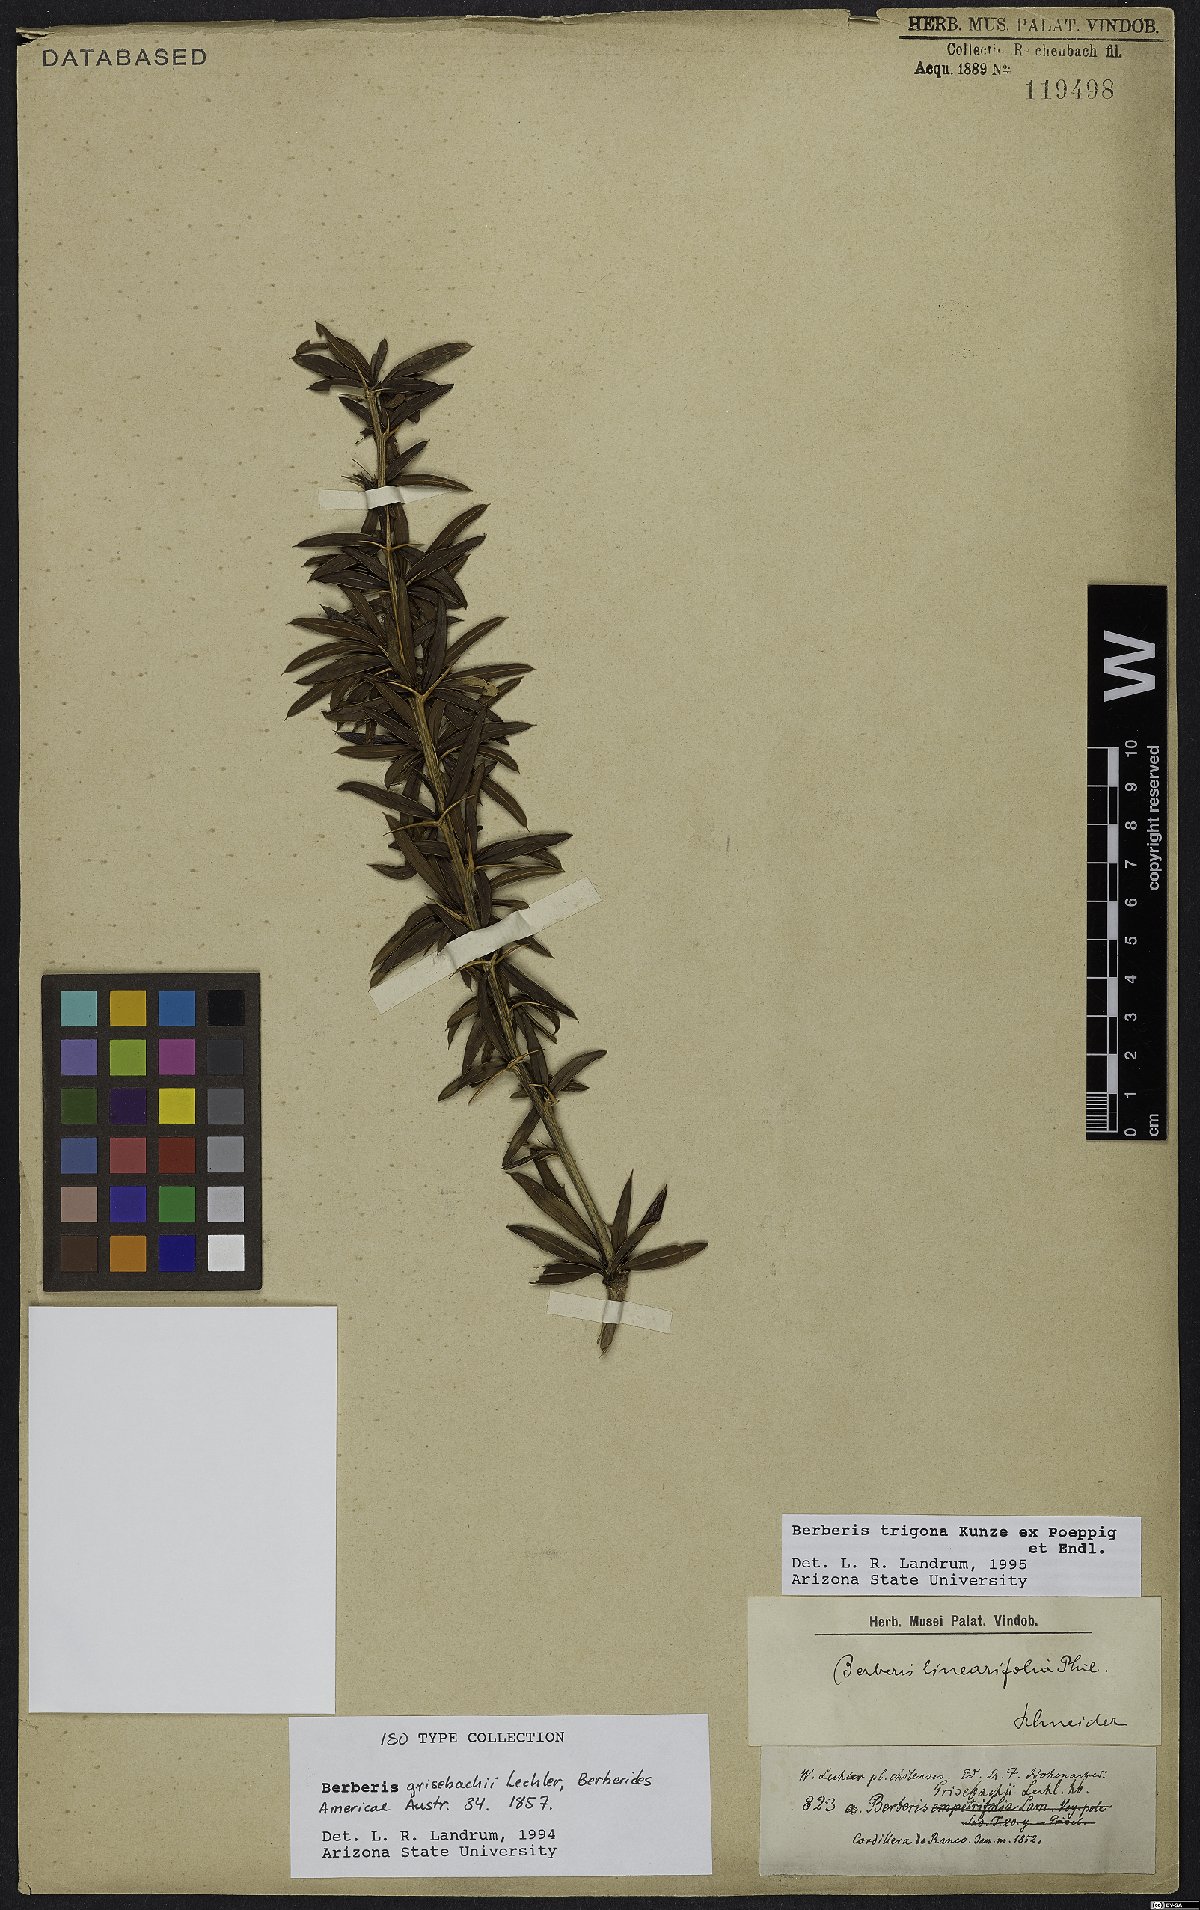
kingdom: Plantae
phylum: Tracheophyta
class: Magnoliopsida
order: Ranunculales
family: Berberidaceae
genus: Berberis
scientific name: Berberis trigona
